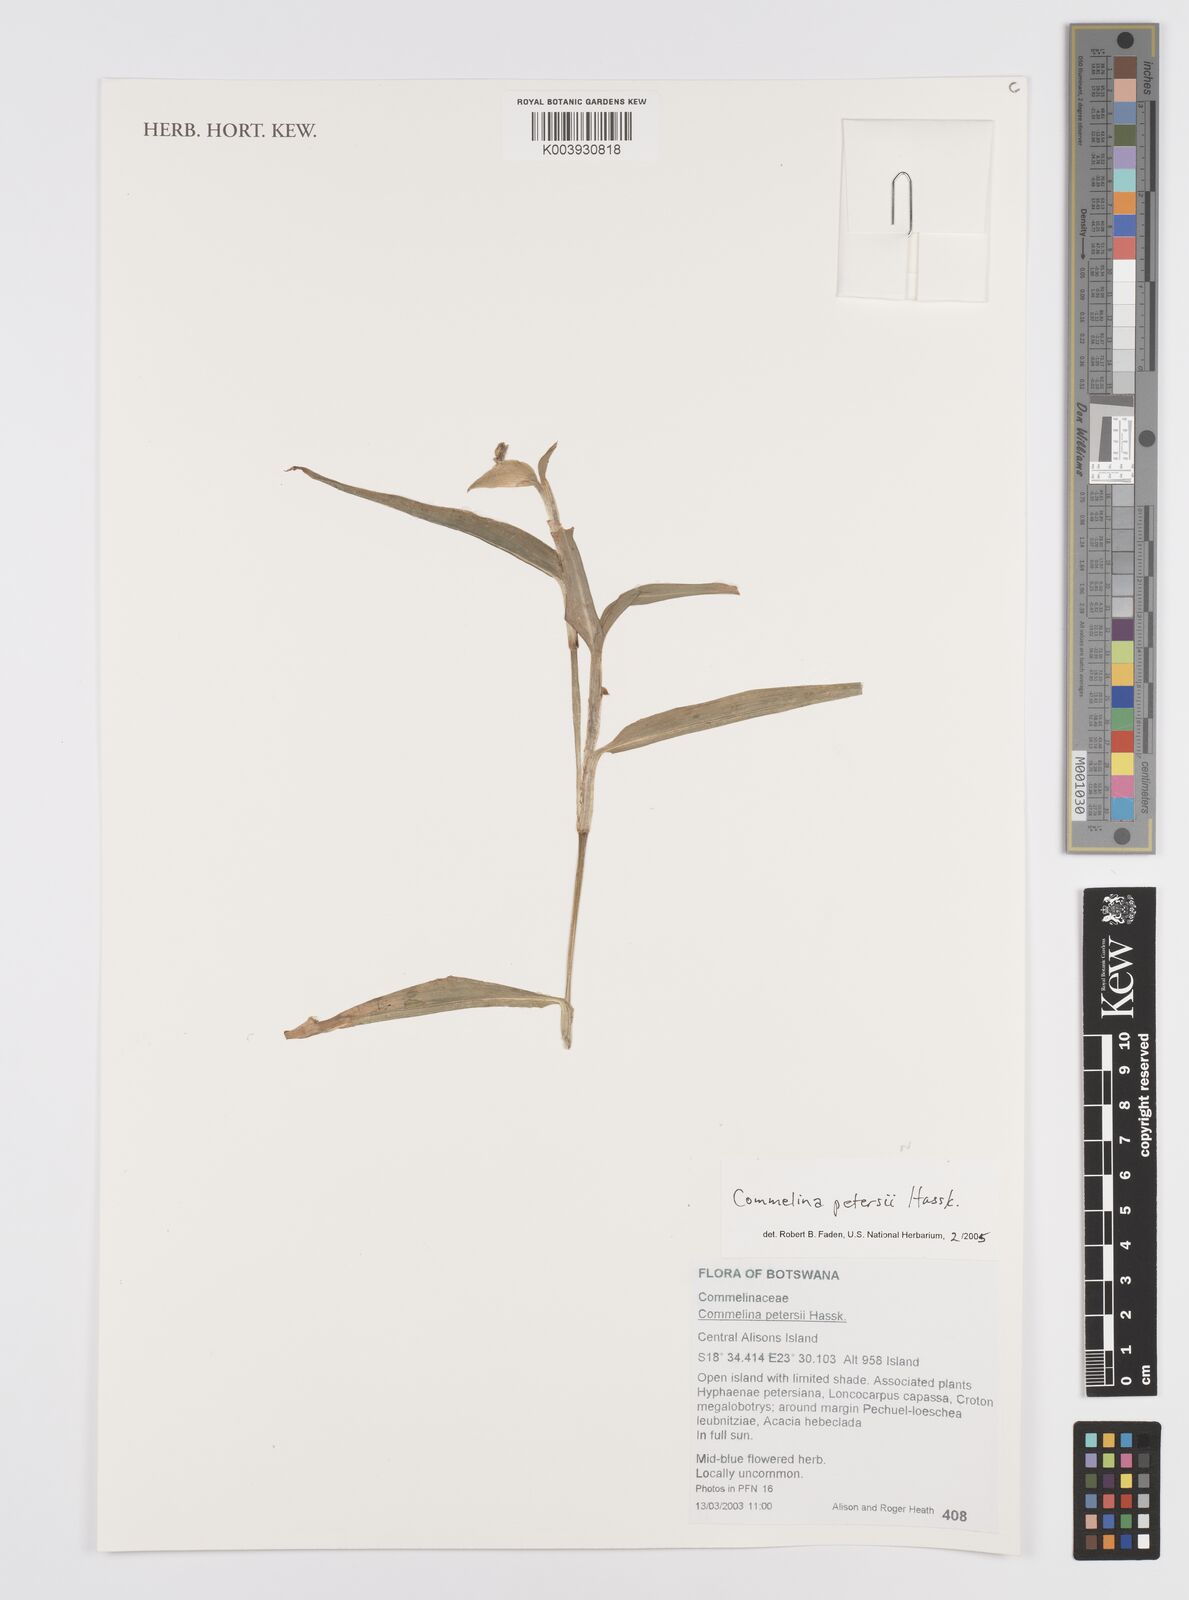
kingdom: Plantae
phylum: Tracheophyta
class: Liliopsida
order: Commelinales
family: Commelinaceae
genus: Commelina
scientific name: Commelina petersii
